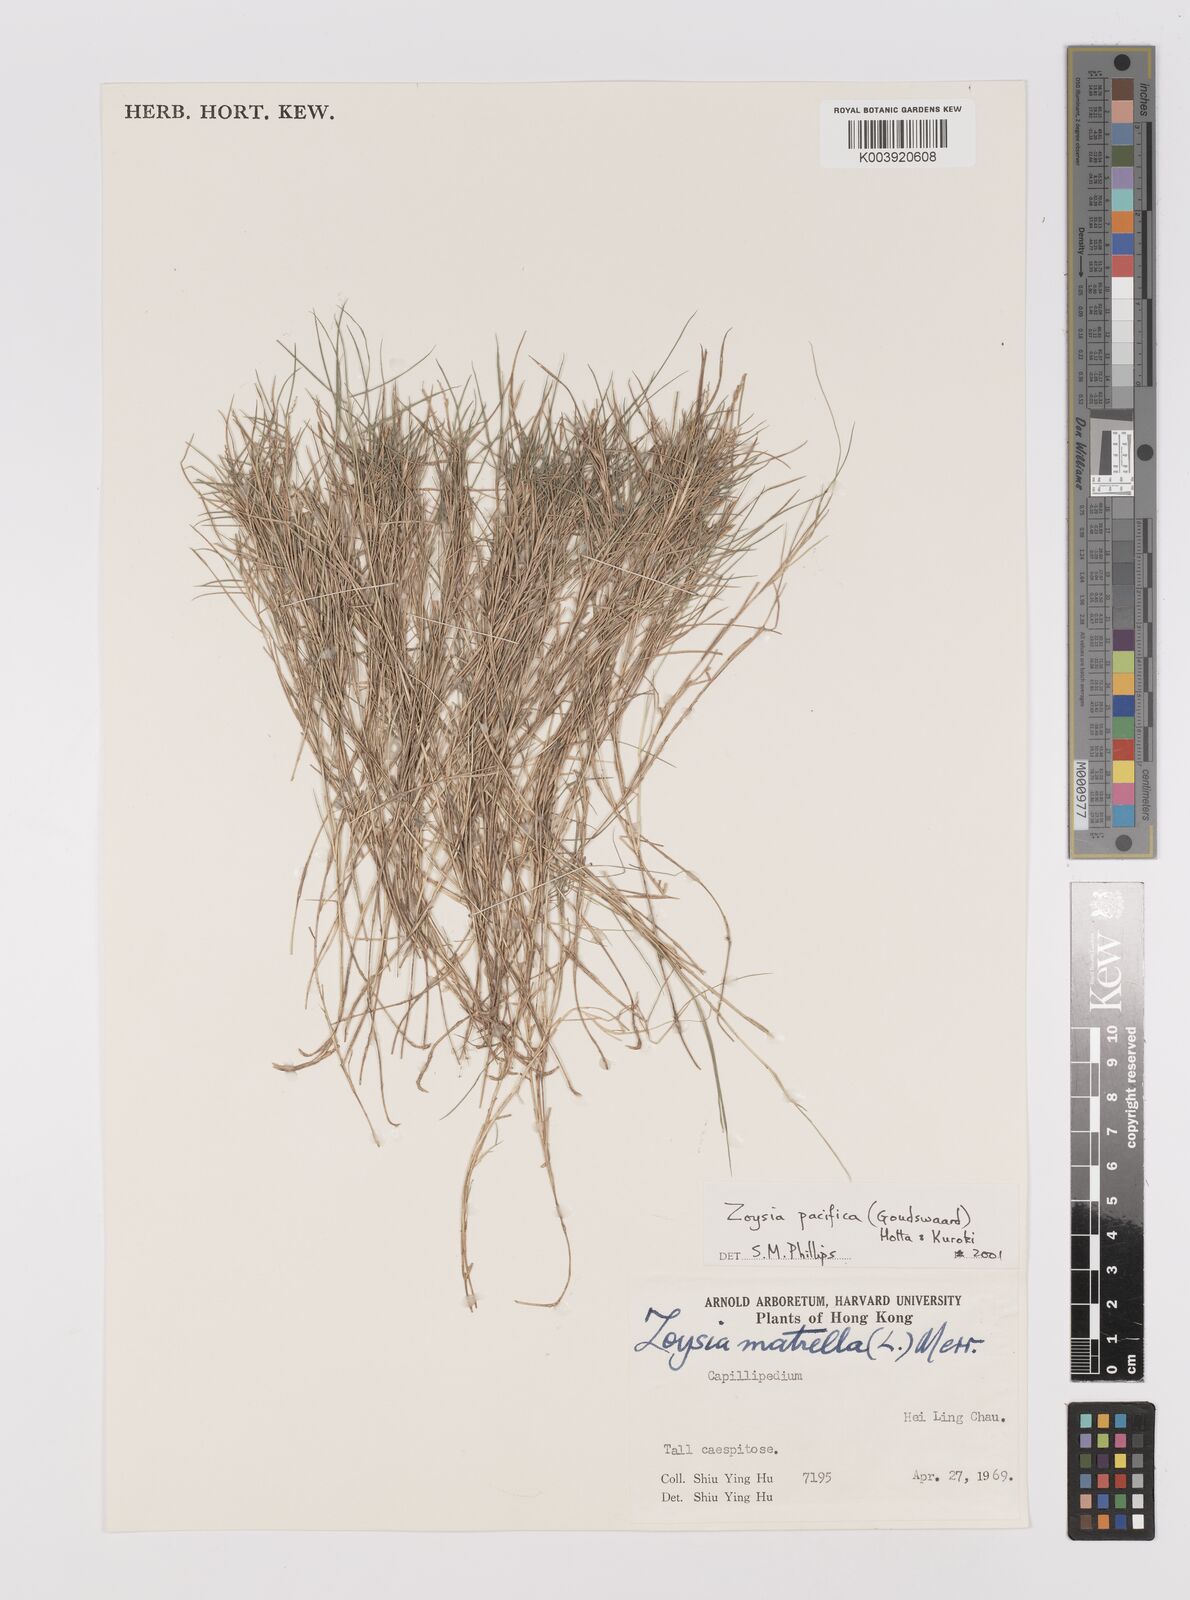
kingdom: Plantae
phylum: Tracheophyta
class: Liliopsida
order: Poales
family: Poaceae
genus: Zoysia
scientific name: Zoysia matrella
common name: Manila grass
